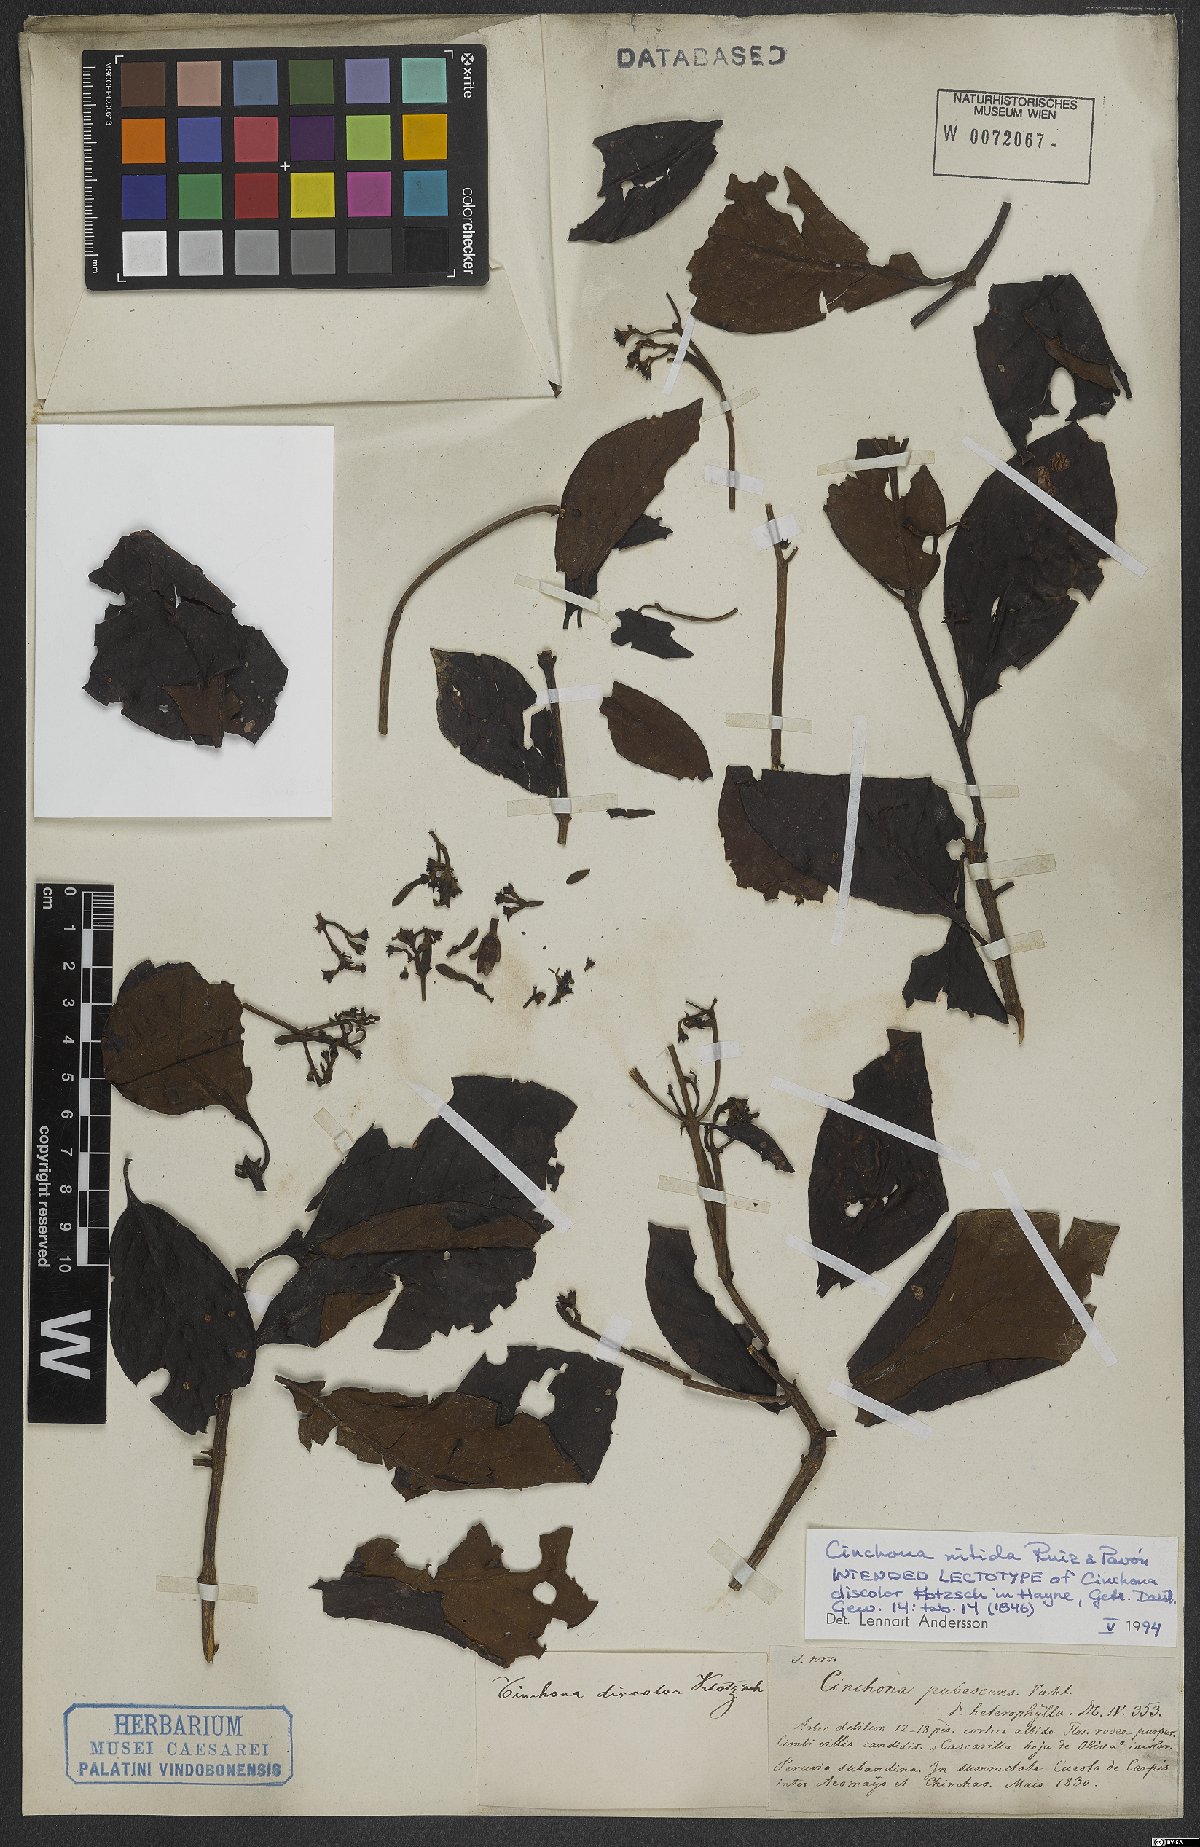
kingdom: Plantae
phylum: Tracheophyta
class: Magnoliopsida
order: Gentianales
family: Rubiaceae
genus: Cinchona
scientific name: Cinchona nitida
